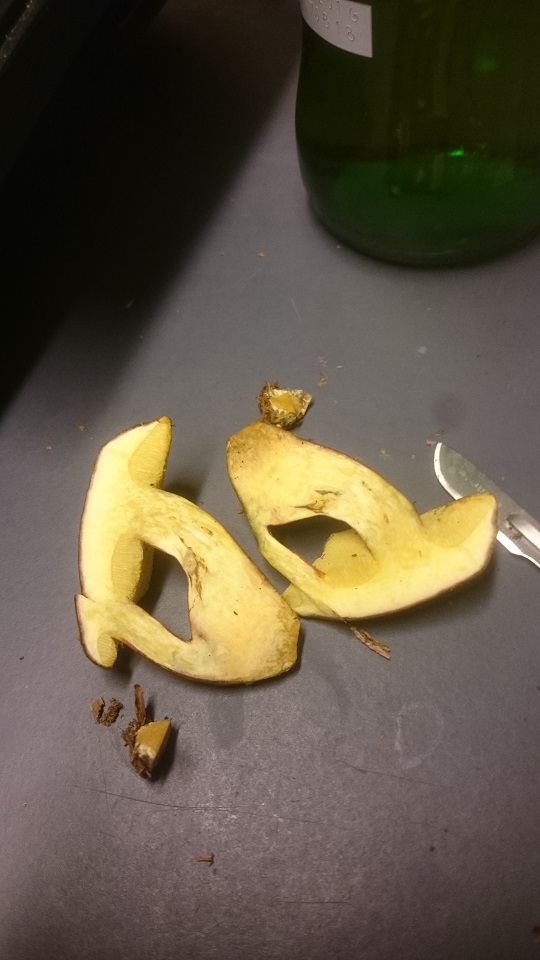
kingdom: Fungi
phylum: Basidiomycota
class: Agaricomycetes
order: Boletales
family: Boletaceae
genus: Xerocomellus
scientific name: Xerocomellus pruinatus
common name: dugget rørhat
